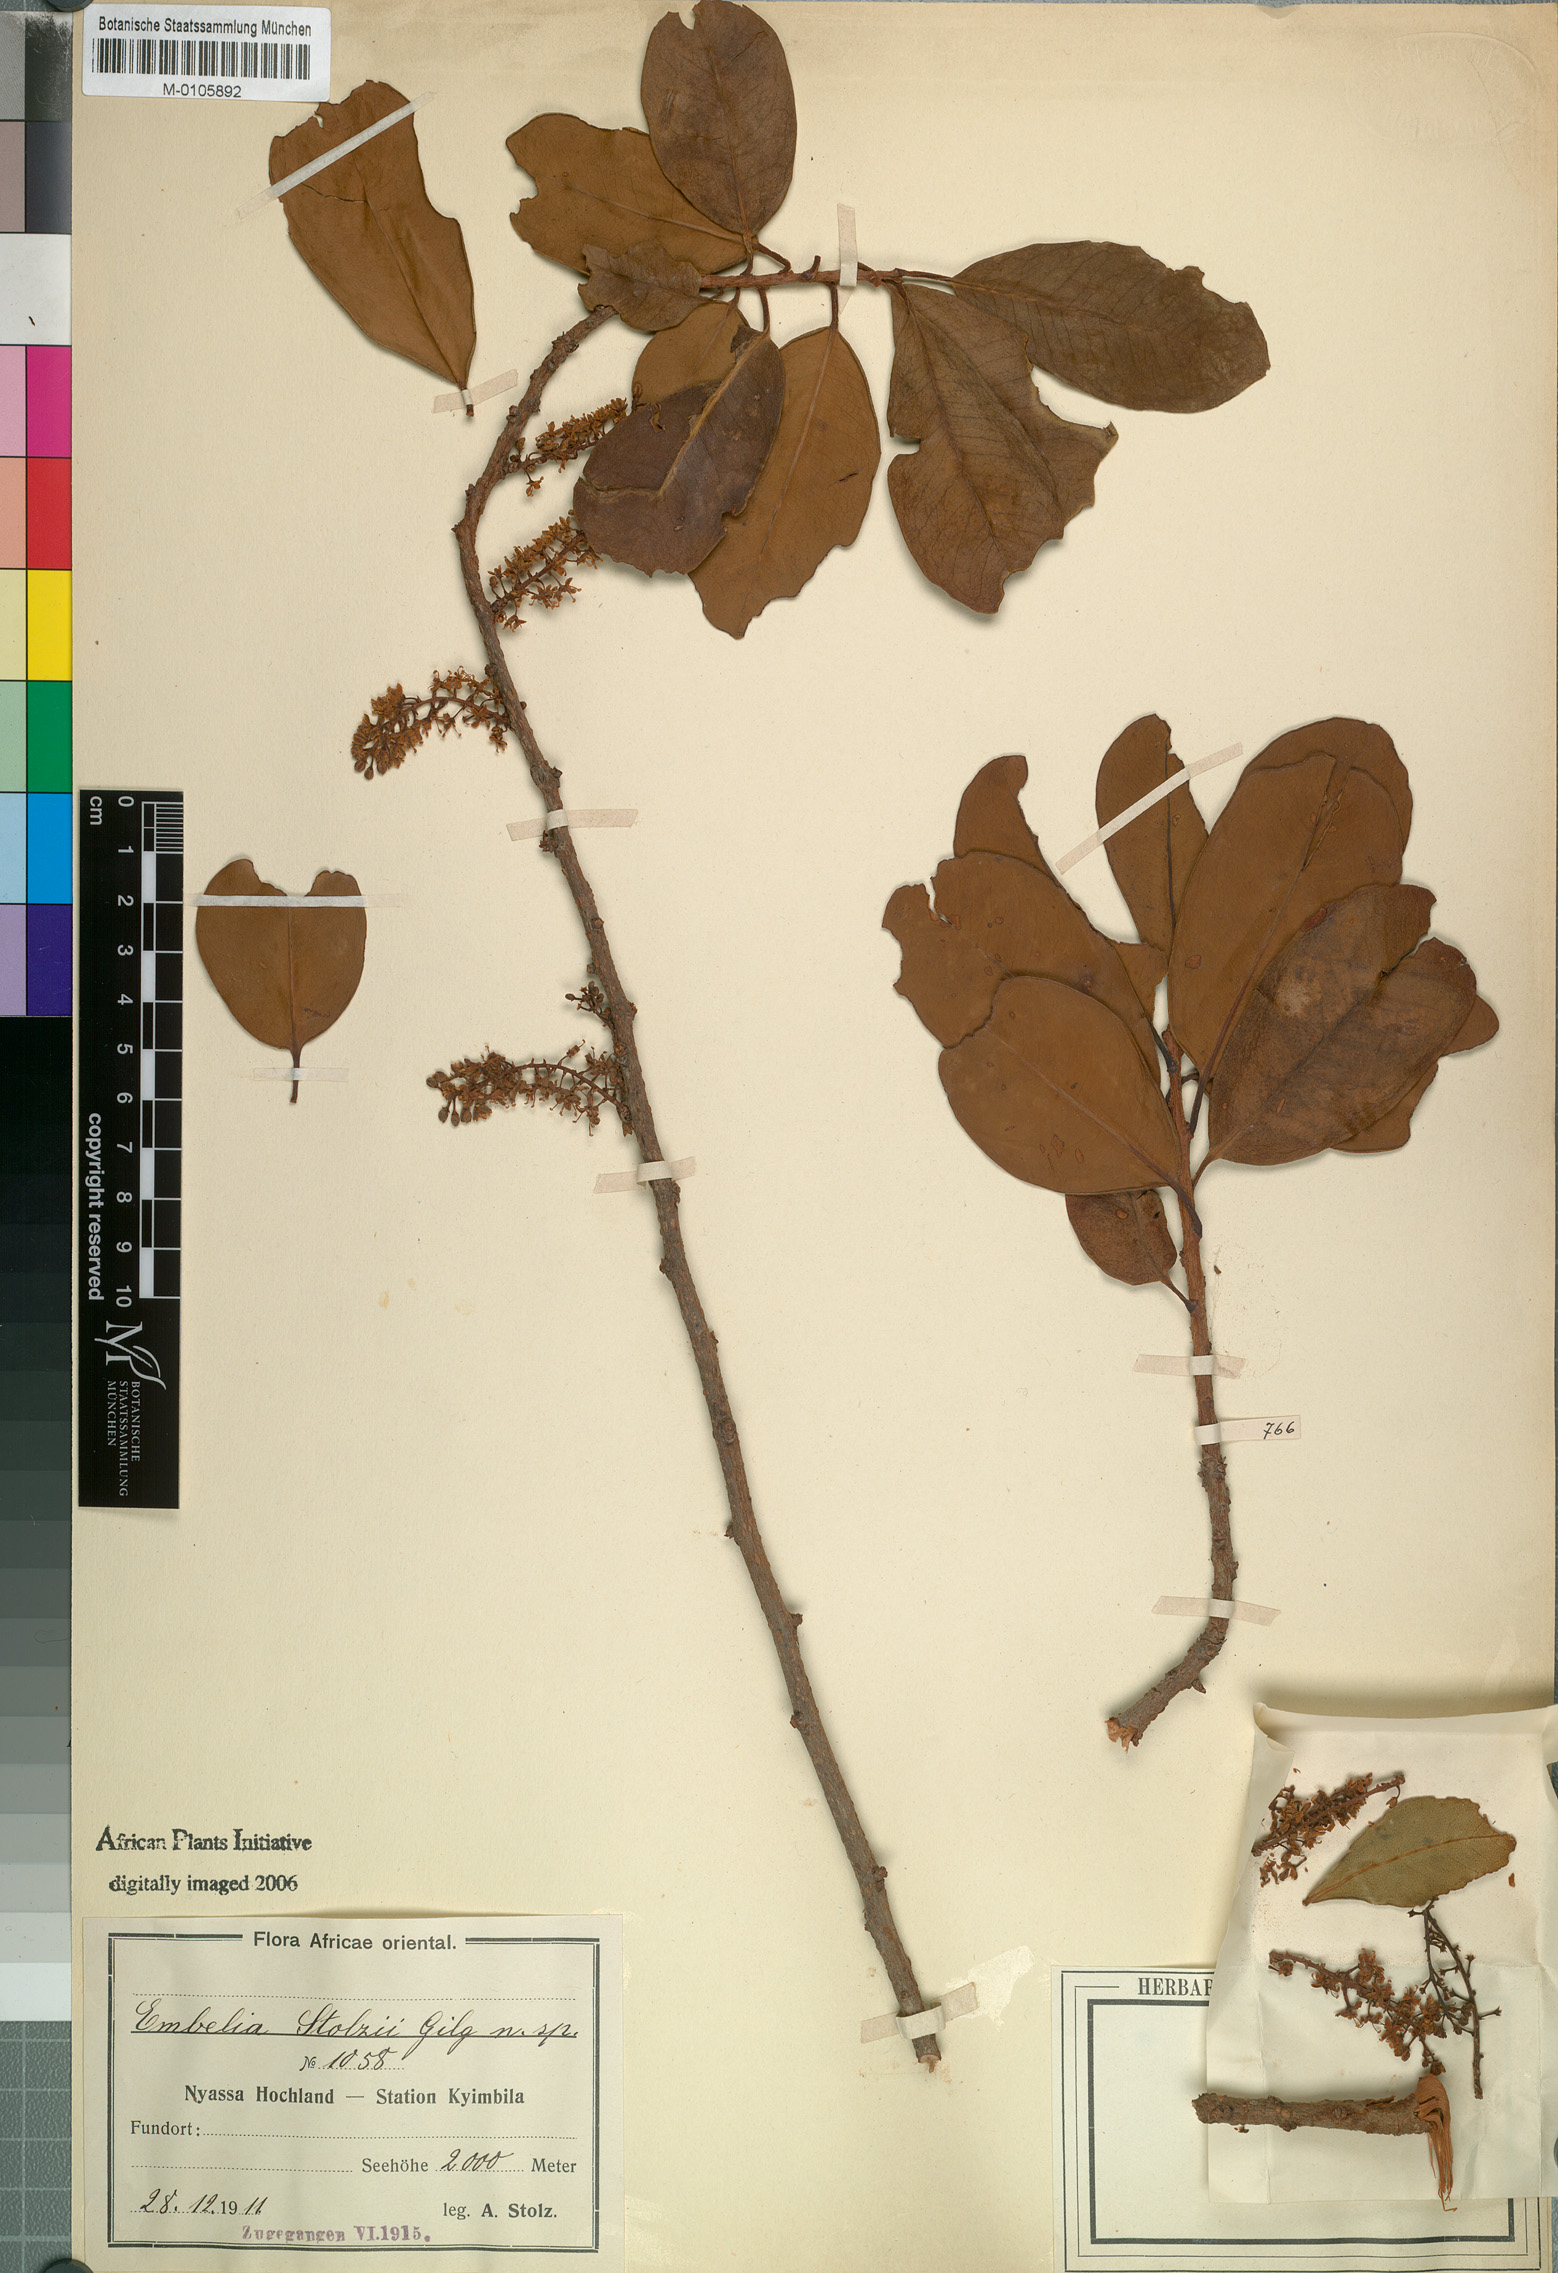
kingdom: Plantae
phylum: Tracheophyta
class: Magnoliopsida
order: Ericales
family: Primulaceae
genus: Embelia
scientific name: Embelia stolzii
